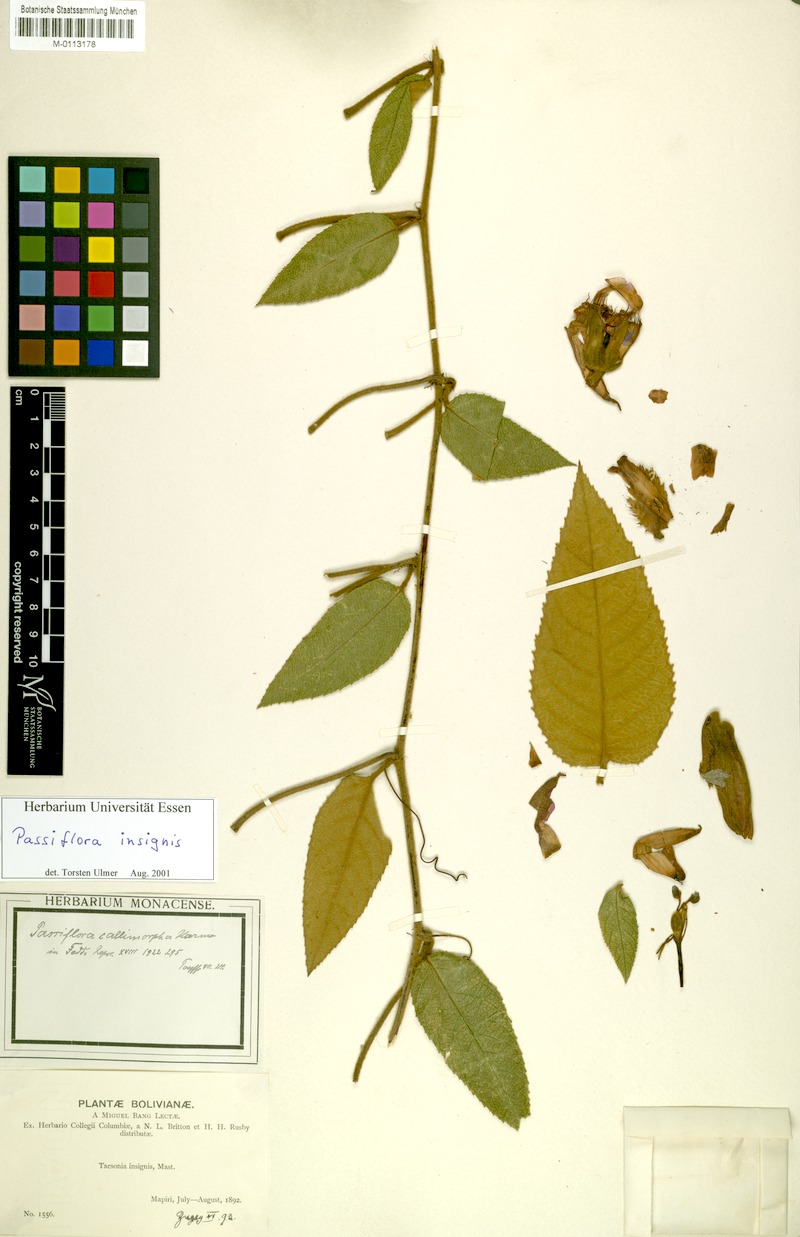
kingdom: Plantae
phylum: Tracheophyta
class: Magnoliopsida
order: Malpighiales
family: Passifloraceae
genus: Passiflora
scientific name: Passiflora insignis
